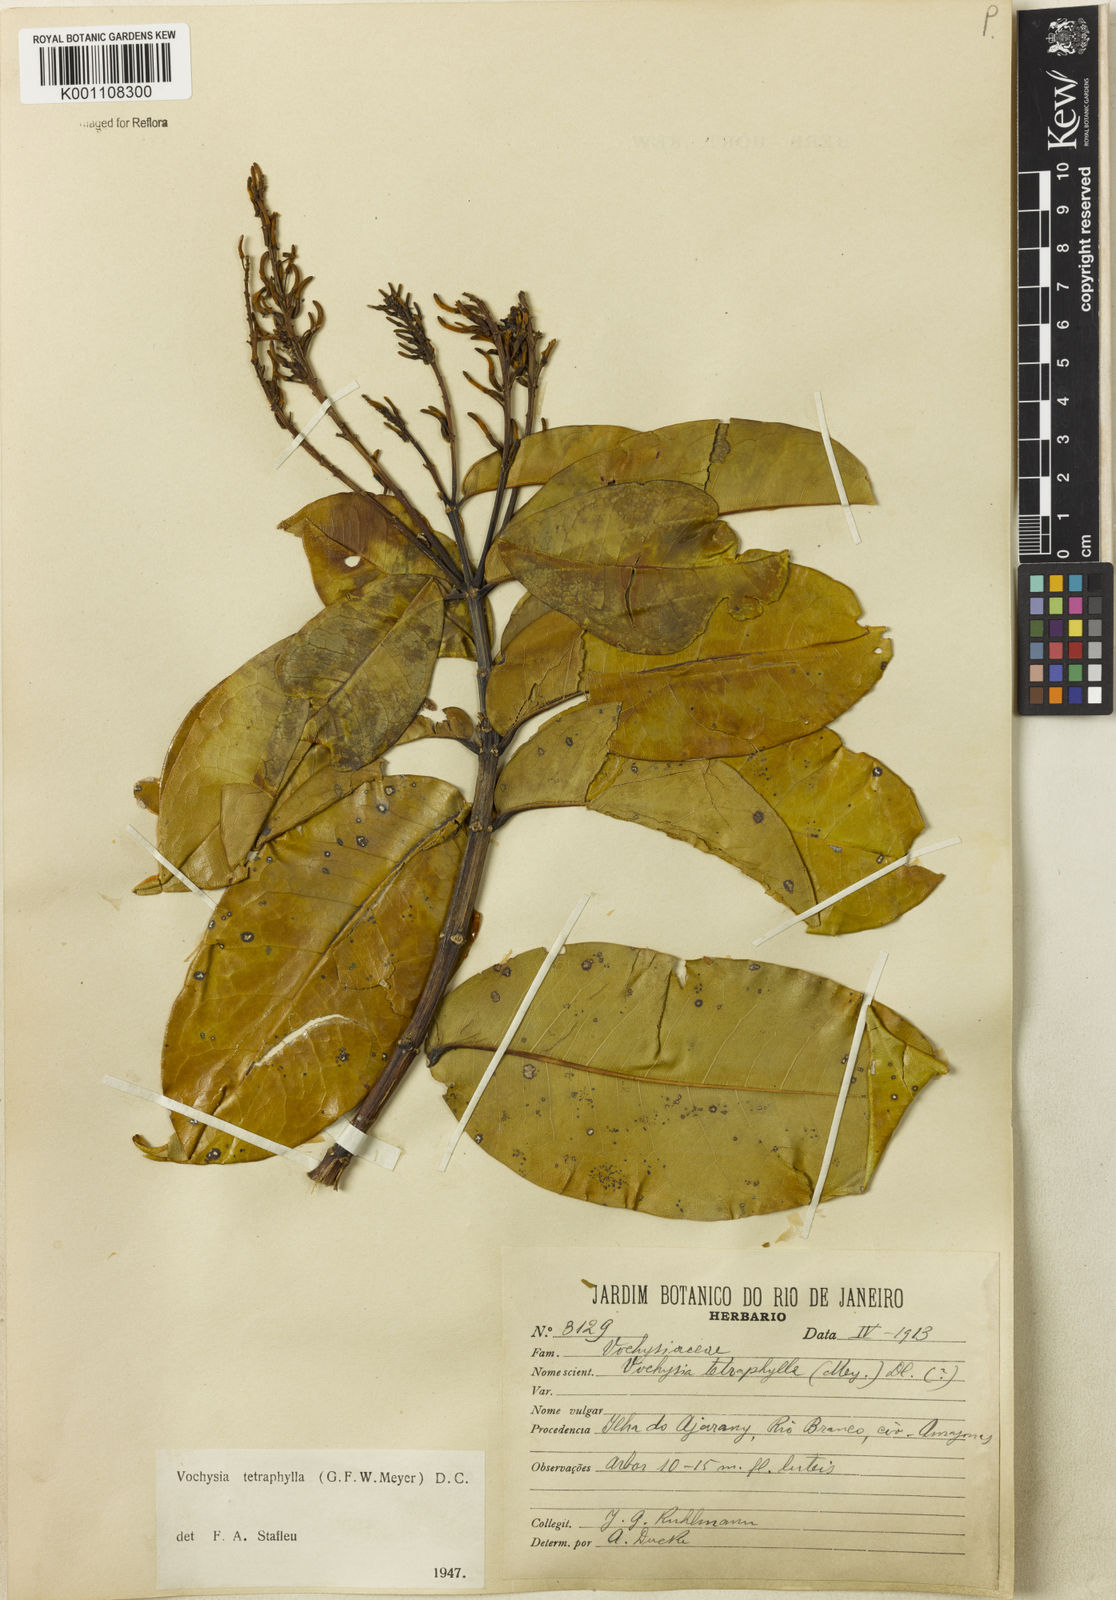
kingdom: Plantae
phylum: Tracheophyta
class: Magnoliopsida
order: Myrtales
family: Vochysiaceae
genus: Vochysia
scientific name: Vochysia tetraphylla
